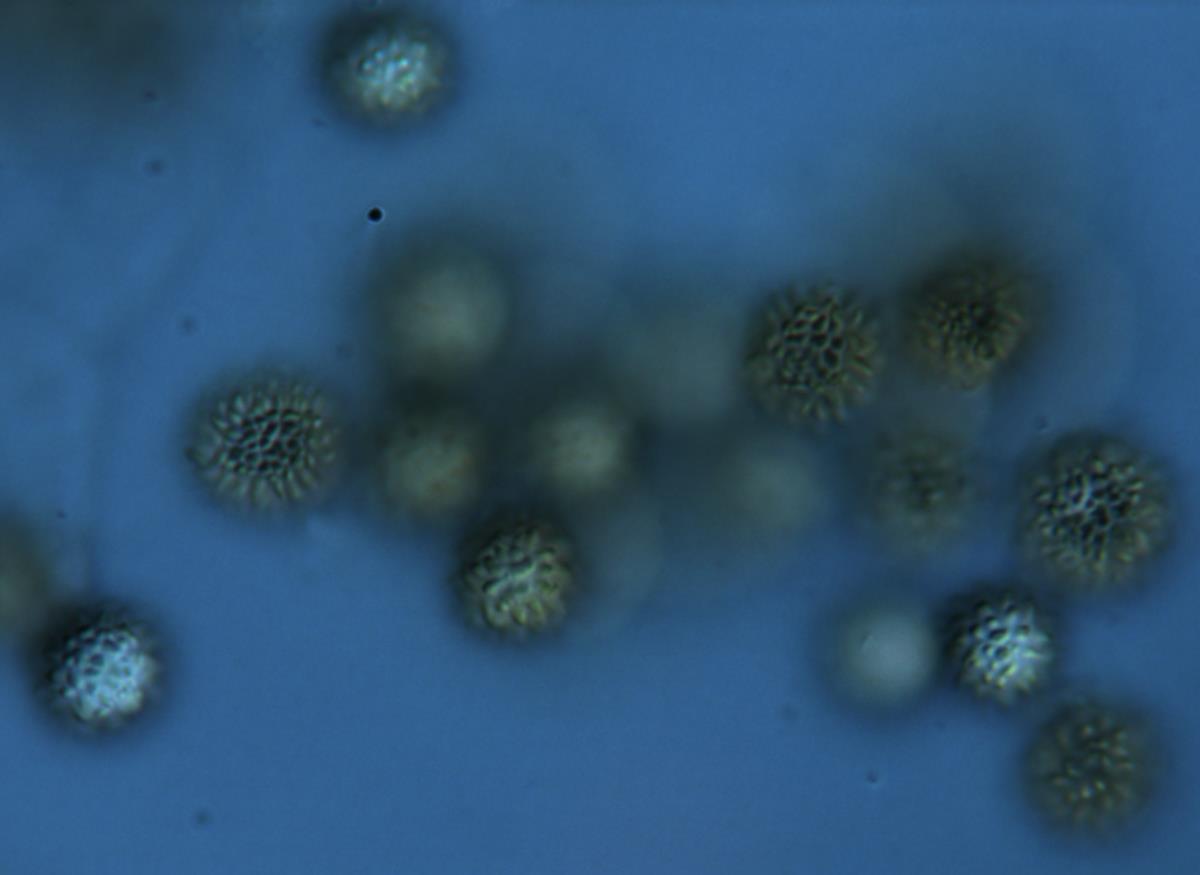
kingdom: Fungi
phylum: Basidiomycota
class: Agaricomycetes
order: Boletales
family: Sclerodermataceae
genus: Pisolithus
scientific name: Pisolithus albus
